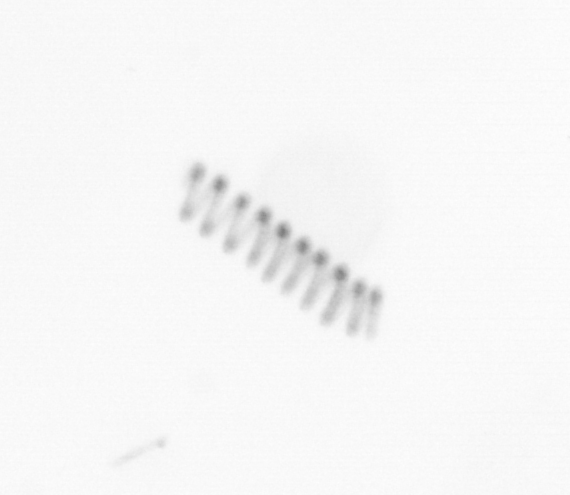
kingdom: Chromista
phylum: Ochrophyta
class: Bacillariophyceae
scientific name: Bacillariophyceae
